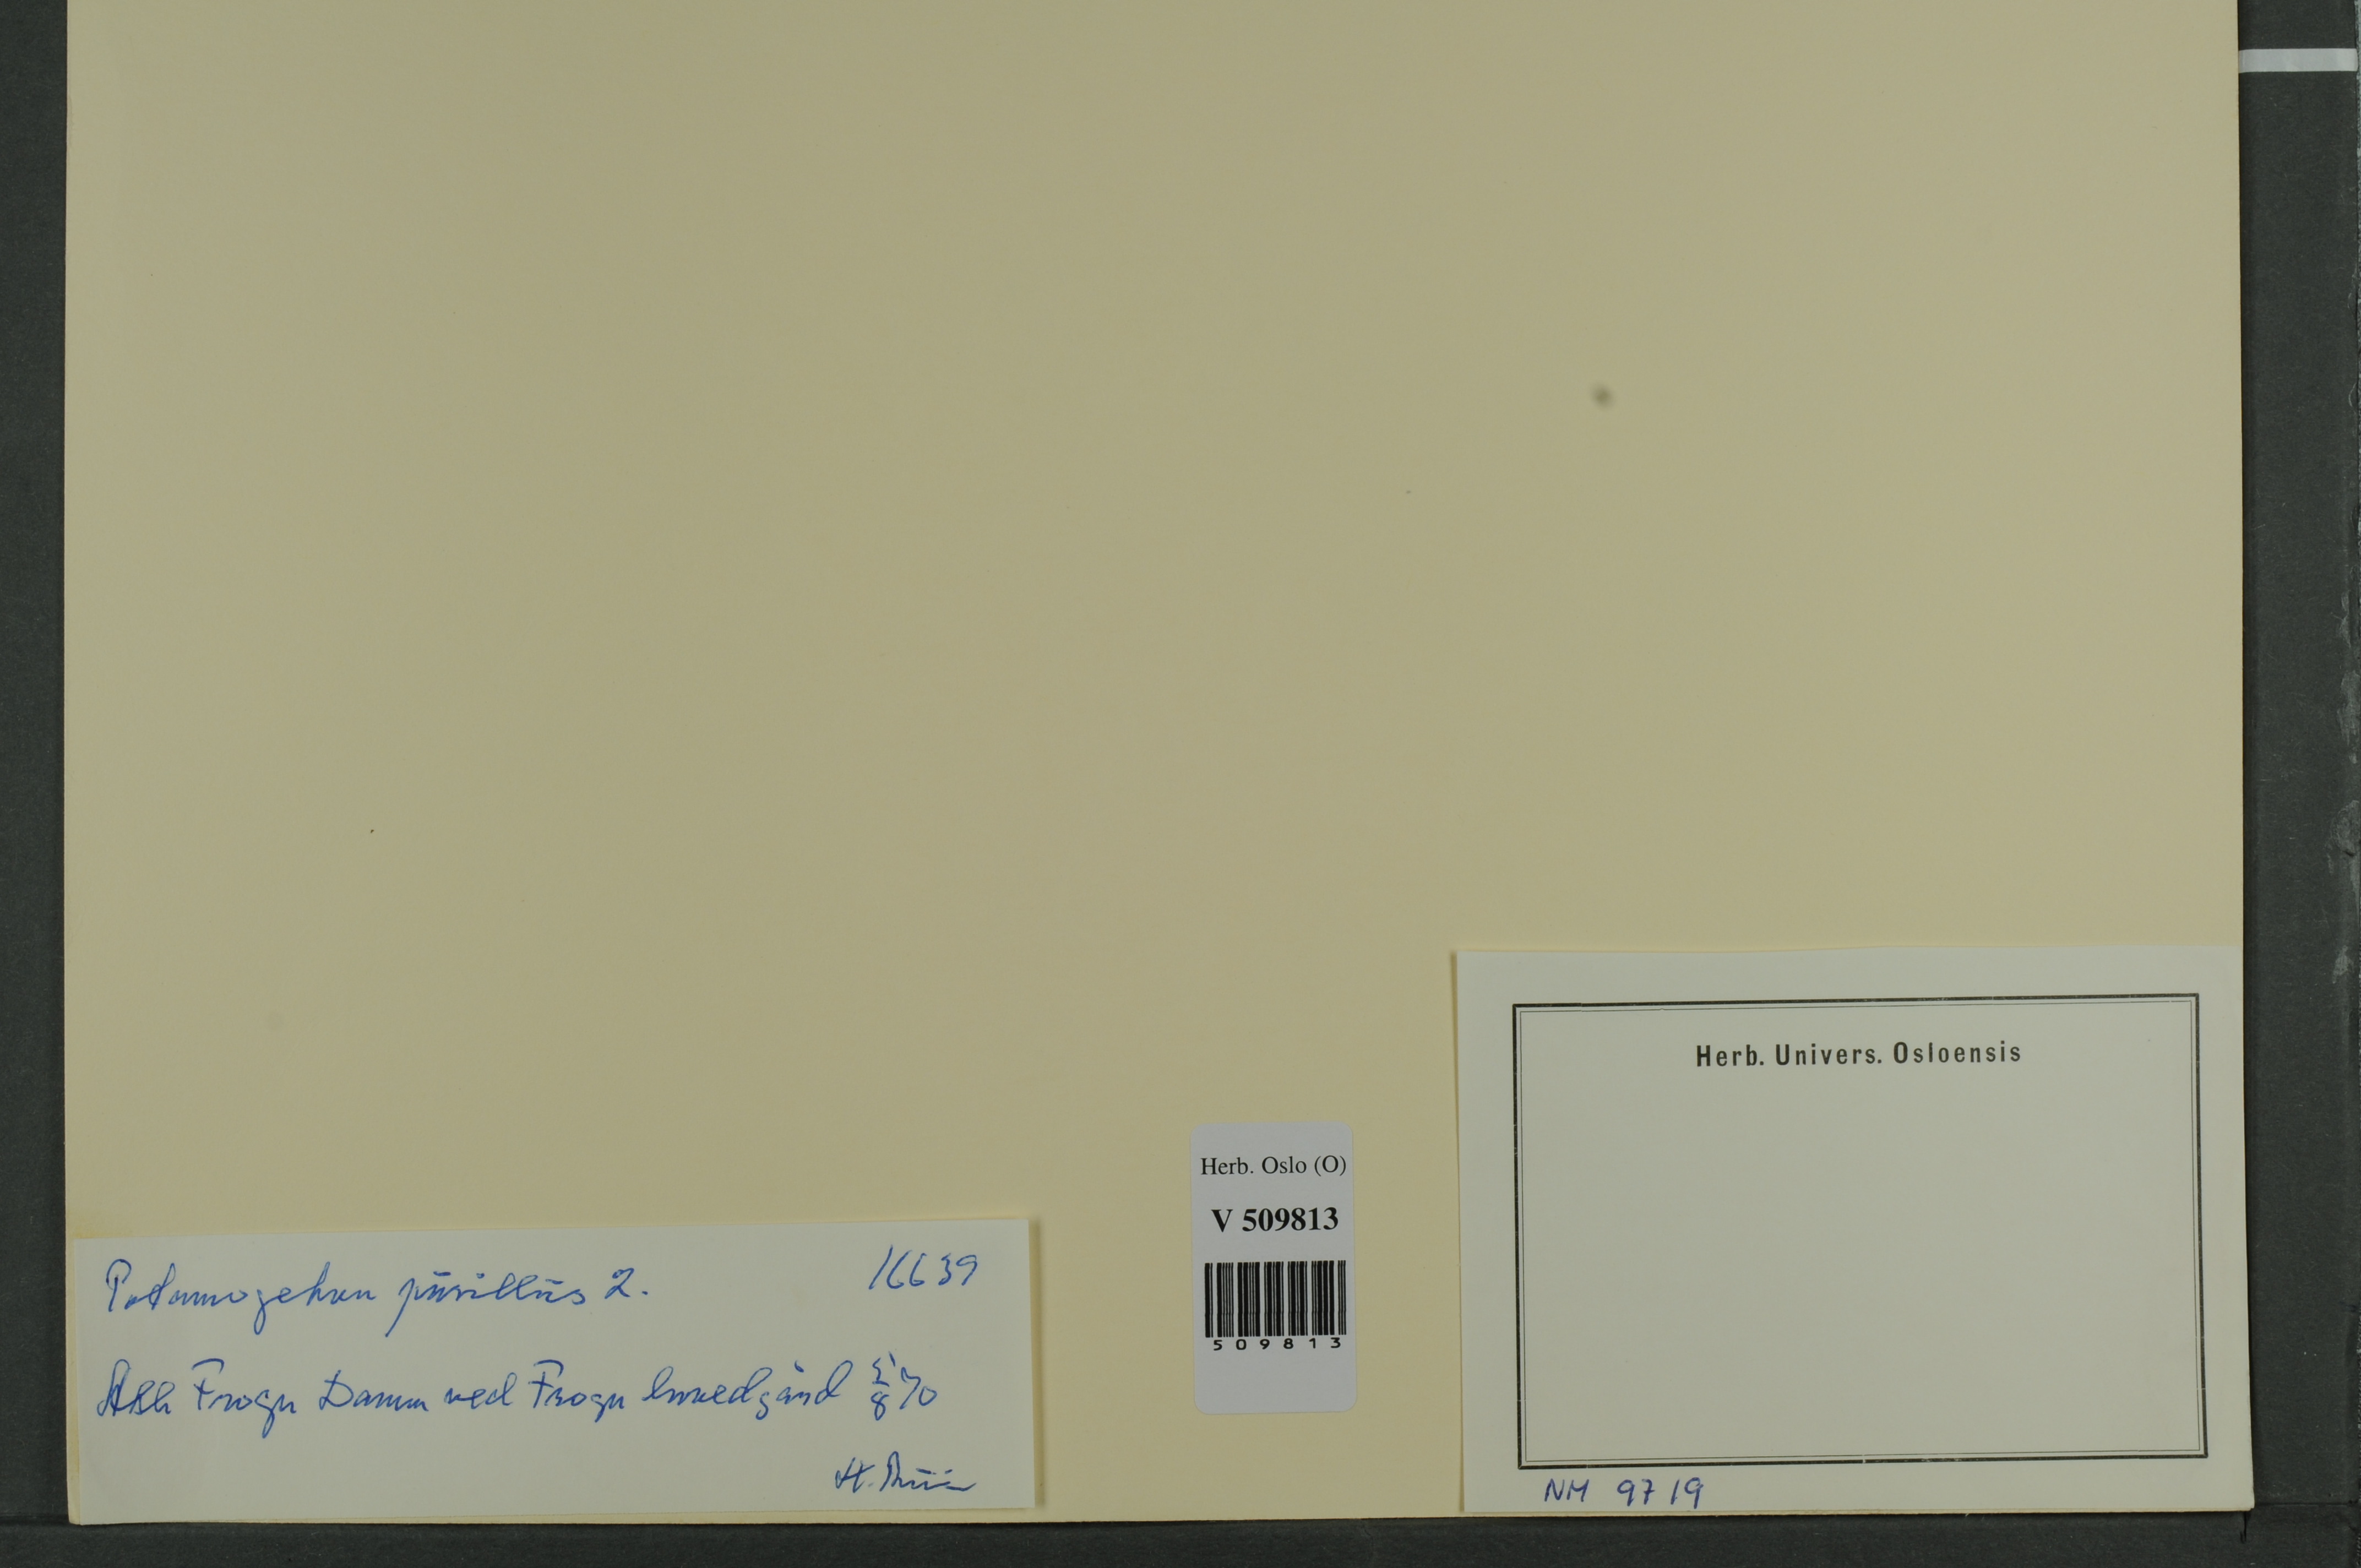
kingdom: Plantae
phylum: Tracheophyta
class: Liliopsida
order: Alismatales
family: Potamogetonaceae
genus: Potamogeton
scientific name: Potamogeton berchtoldii
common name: Small pondweed
